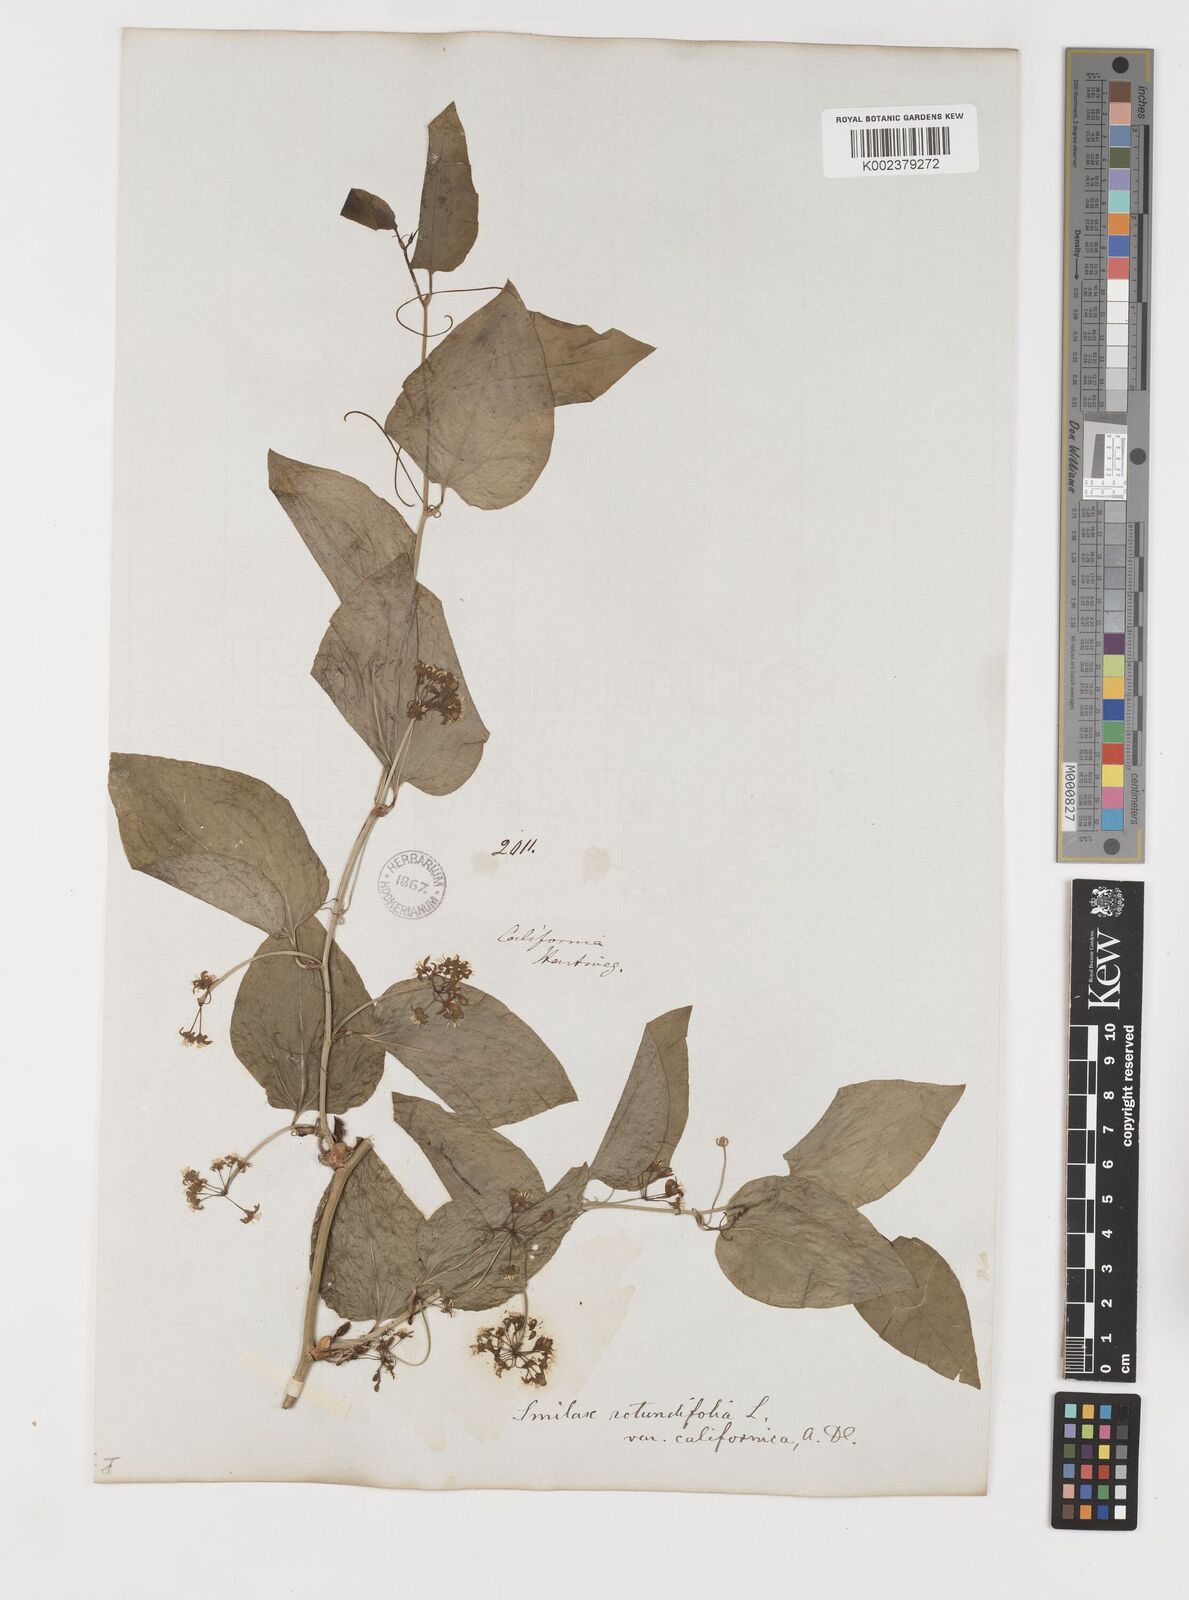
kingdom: Plantae
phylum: Tracheophyta
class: Liliopsida
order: Liliales
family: Smilacaceae
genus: Smilax
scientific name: Smilax californica
